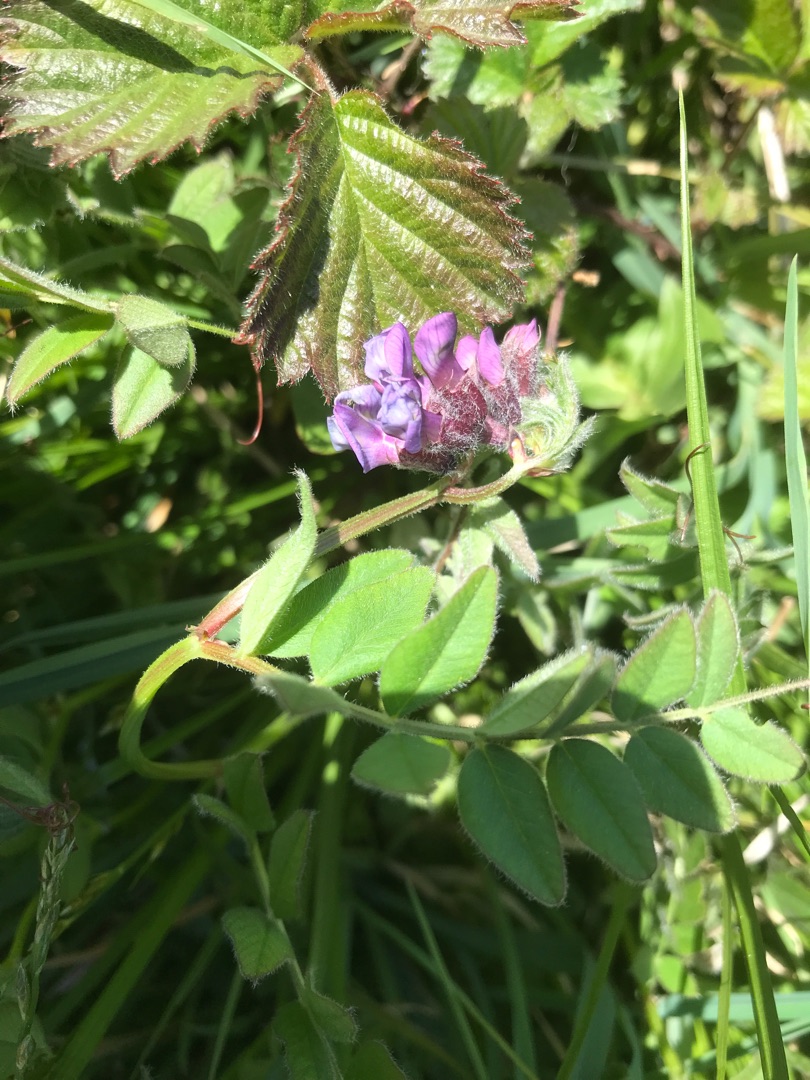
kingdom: Plantae
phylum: Tracheophyta
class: Magnoliopsida
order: Fabales
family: Fabaceae
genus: Vicia
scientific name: Vicia sepium
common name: Gærde-vikke
